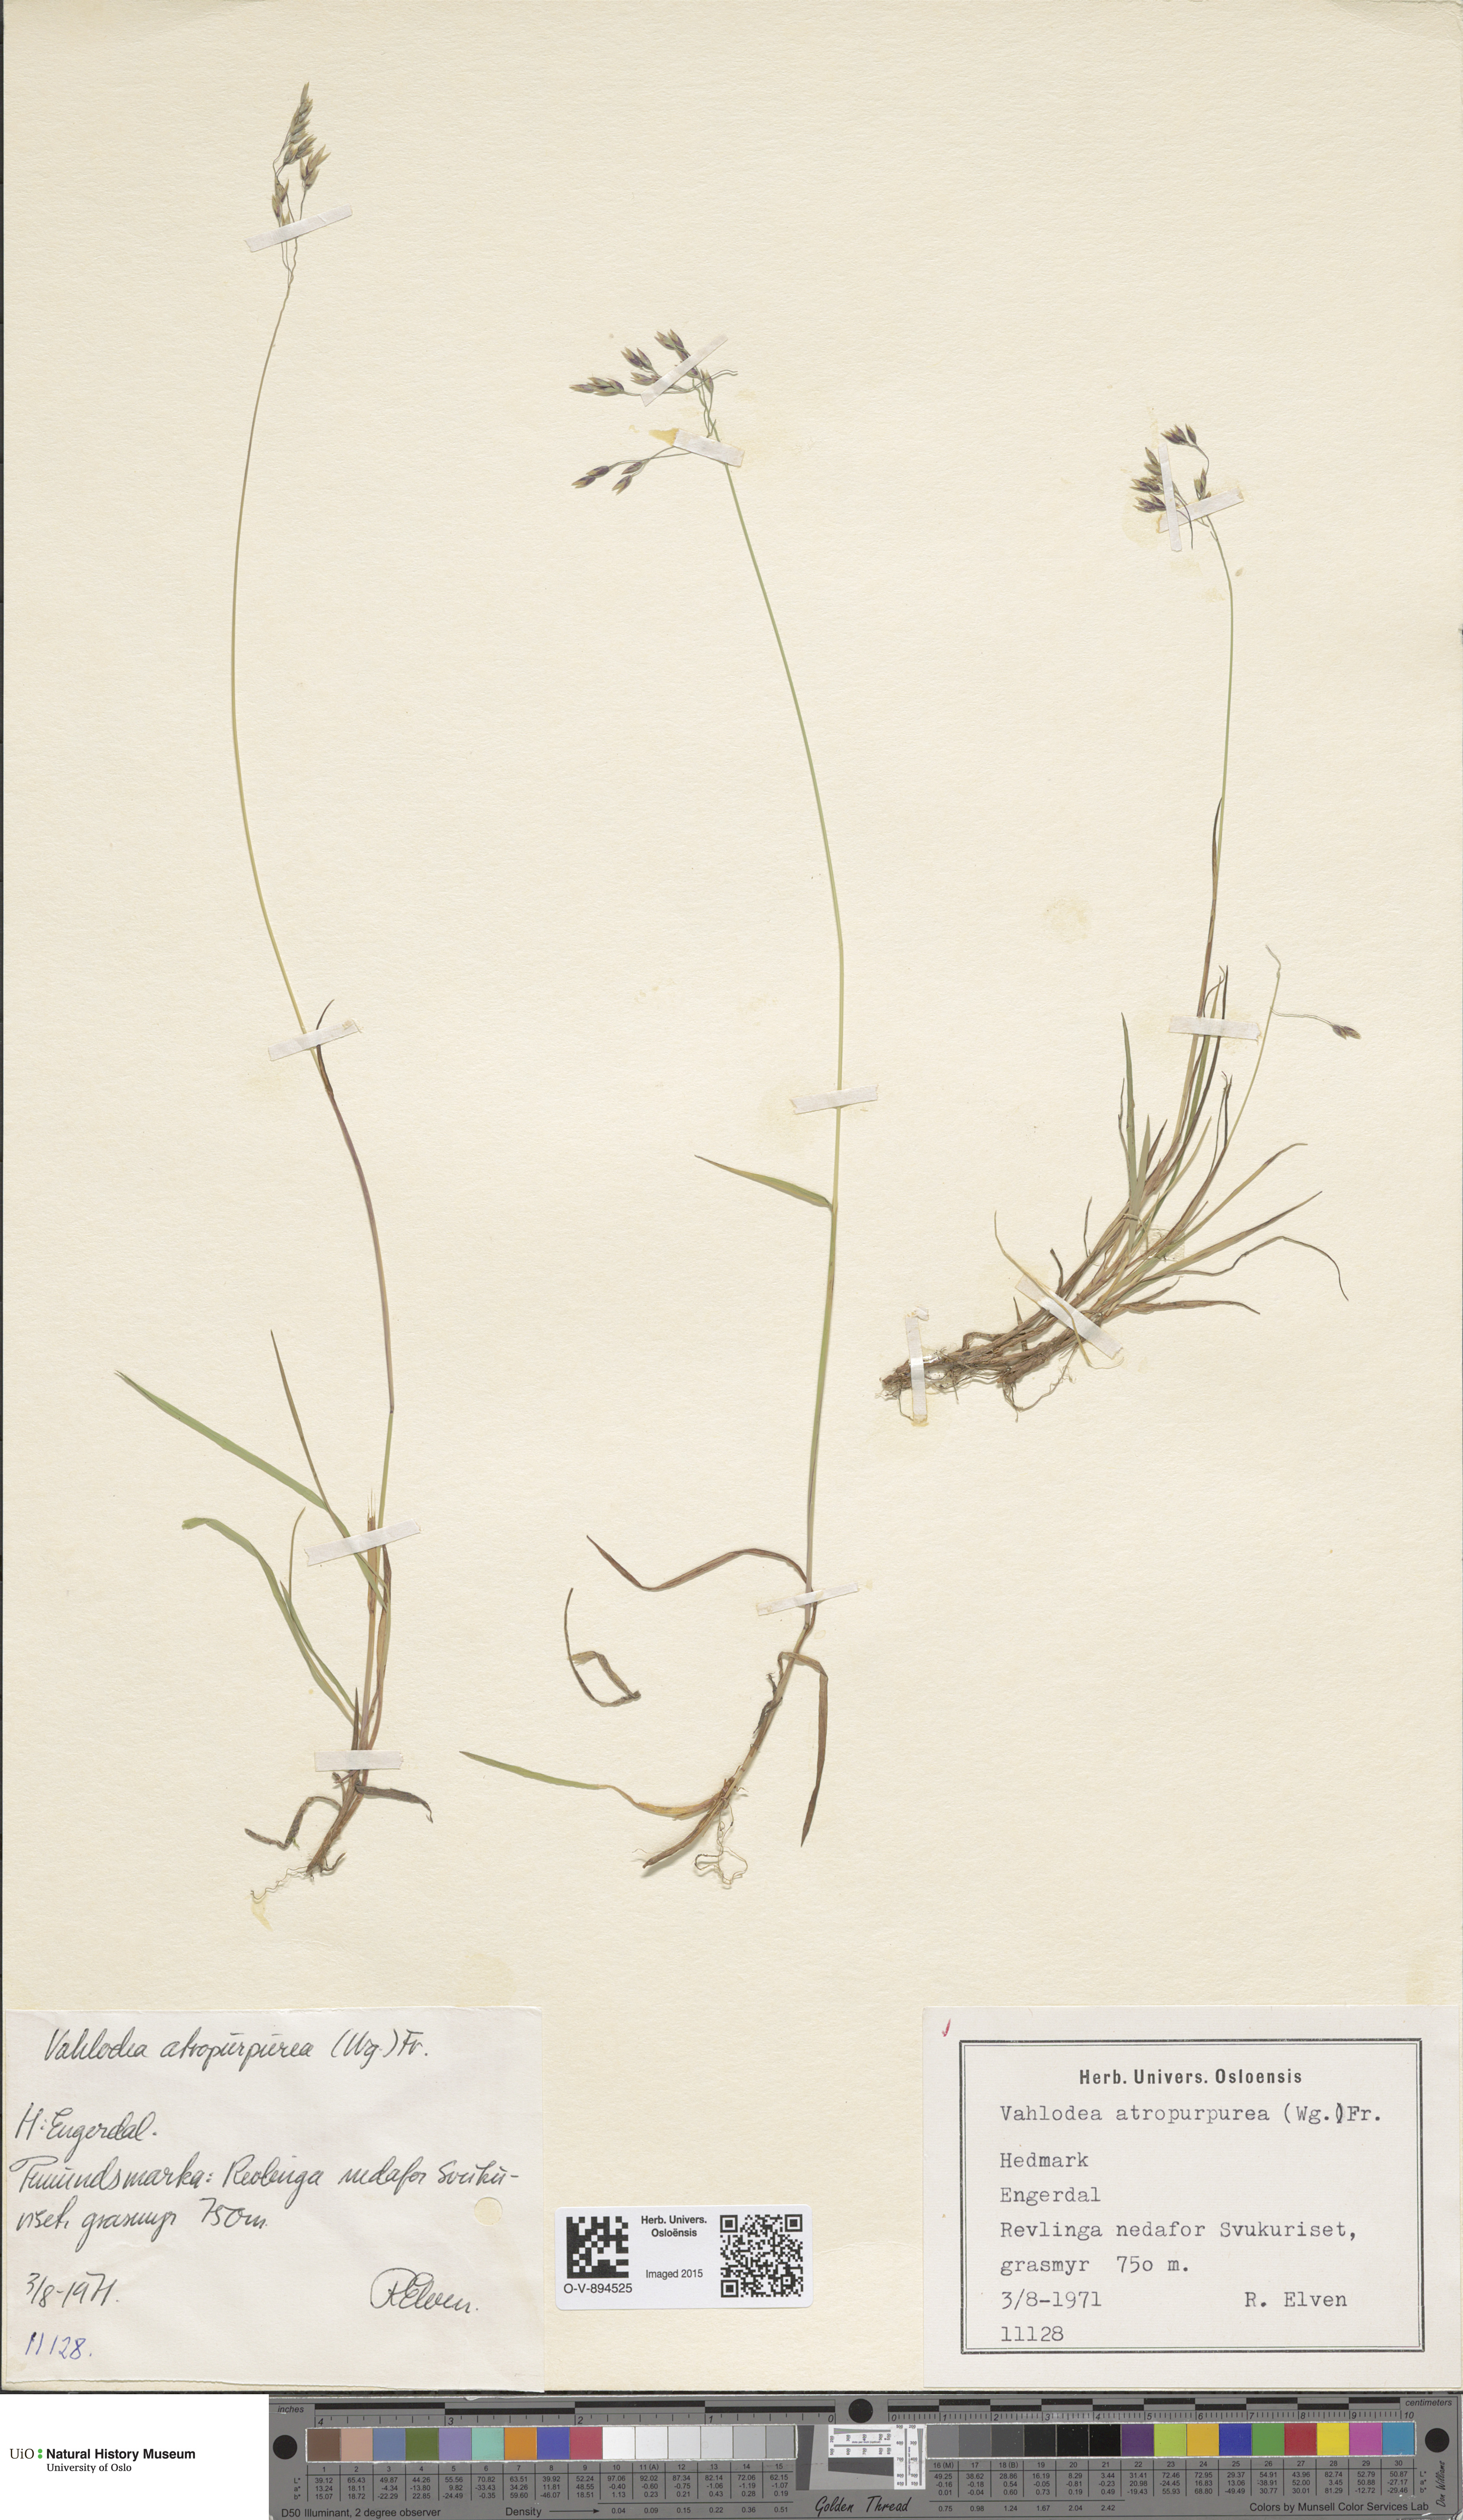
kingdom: Plantae
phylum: Tracheophyta
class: Liliopsida
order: Poales
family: Poaceae
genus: Vahlodea
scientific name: Vahlodea atropurpurea
